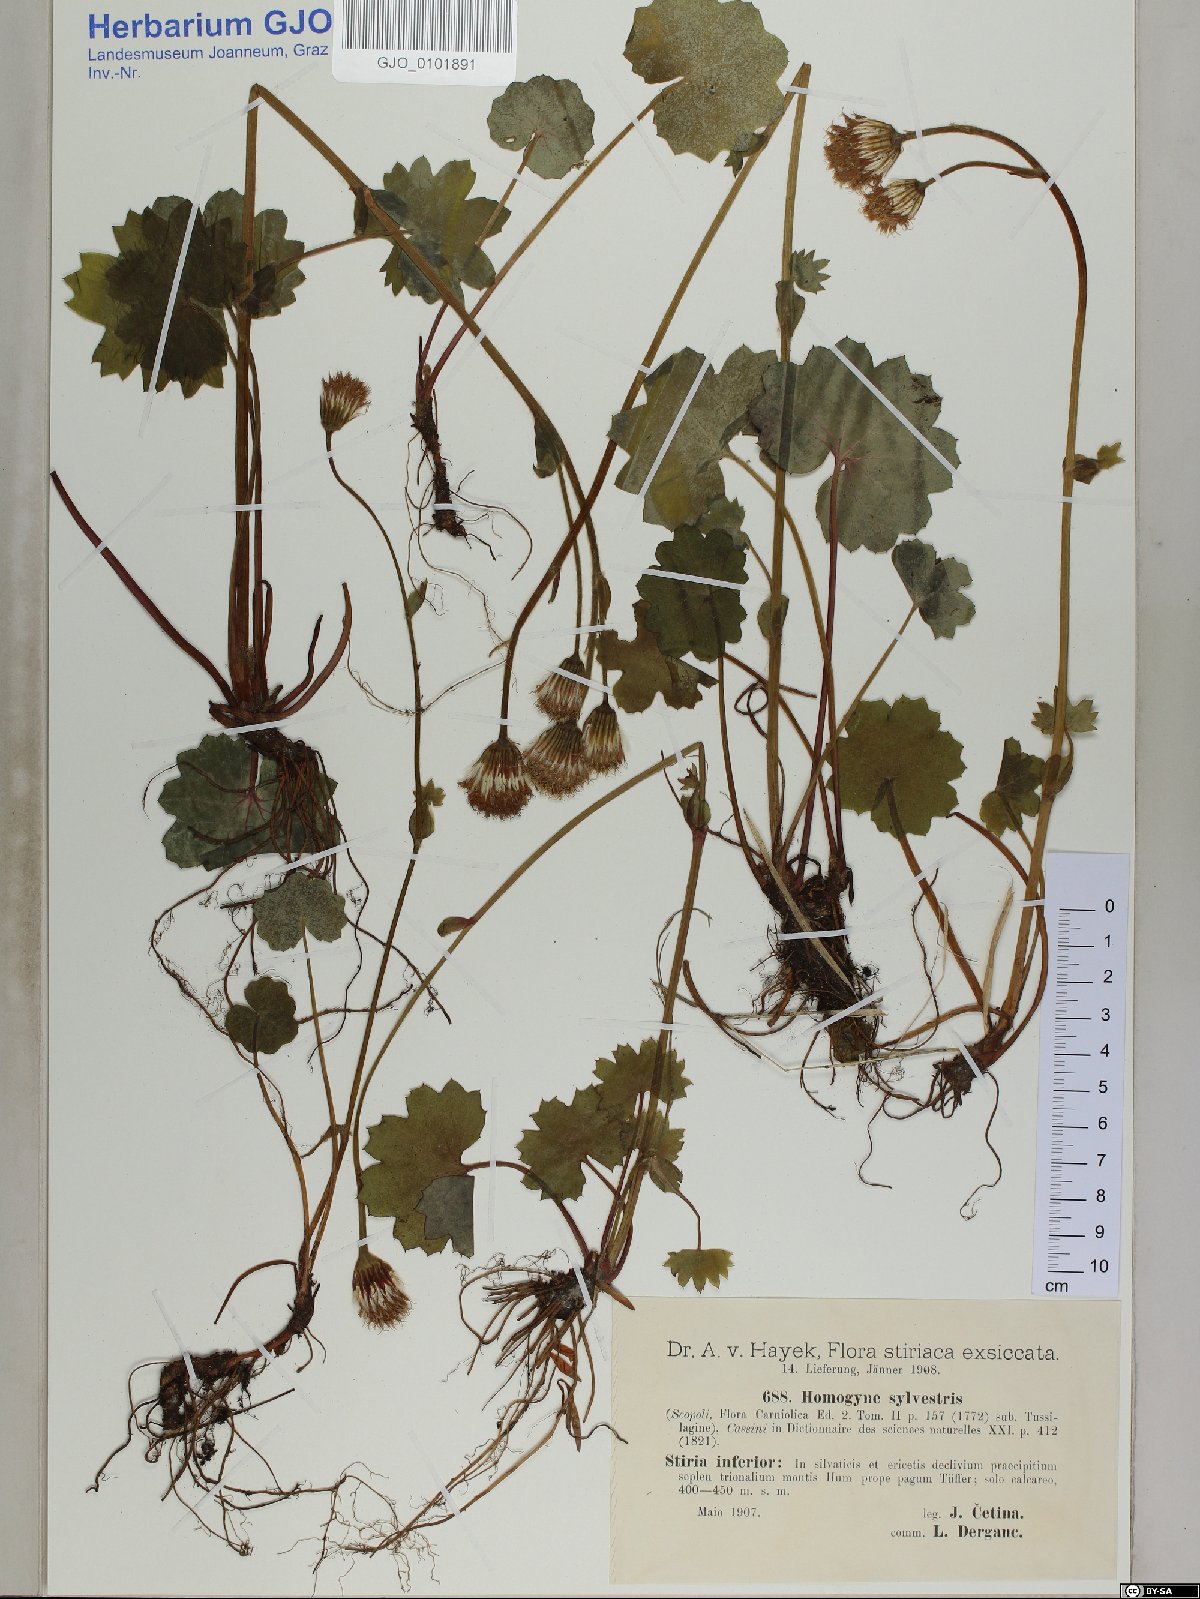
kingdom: Plantae
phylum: Tracheophyta
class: Magnoliopsida
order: Asterales
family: Asteraceae
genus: Homogyne
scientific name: Homogyne sylvestris
